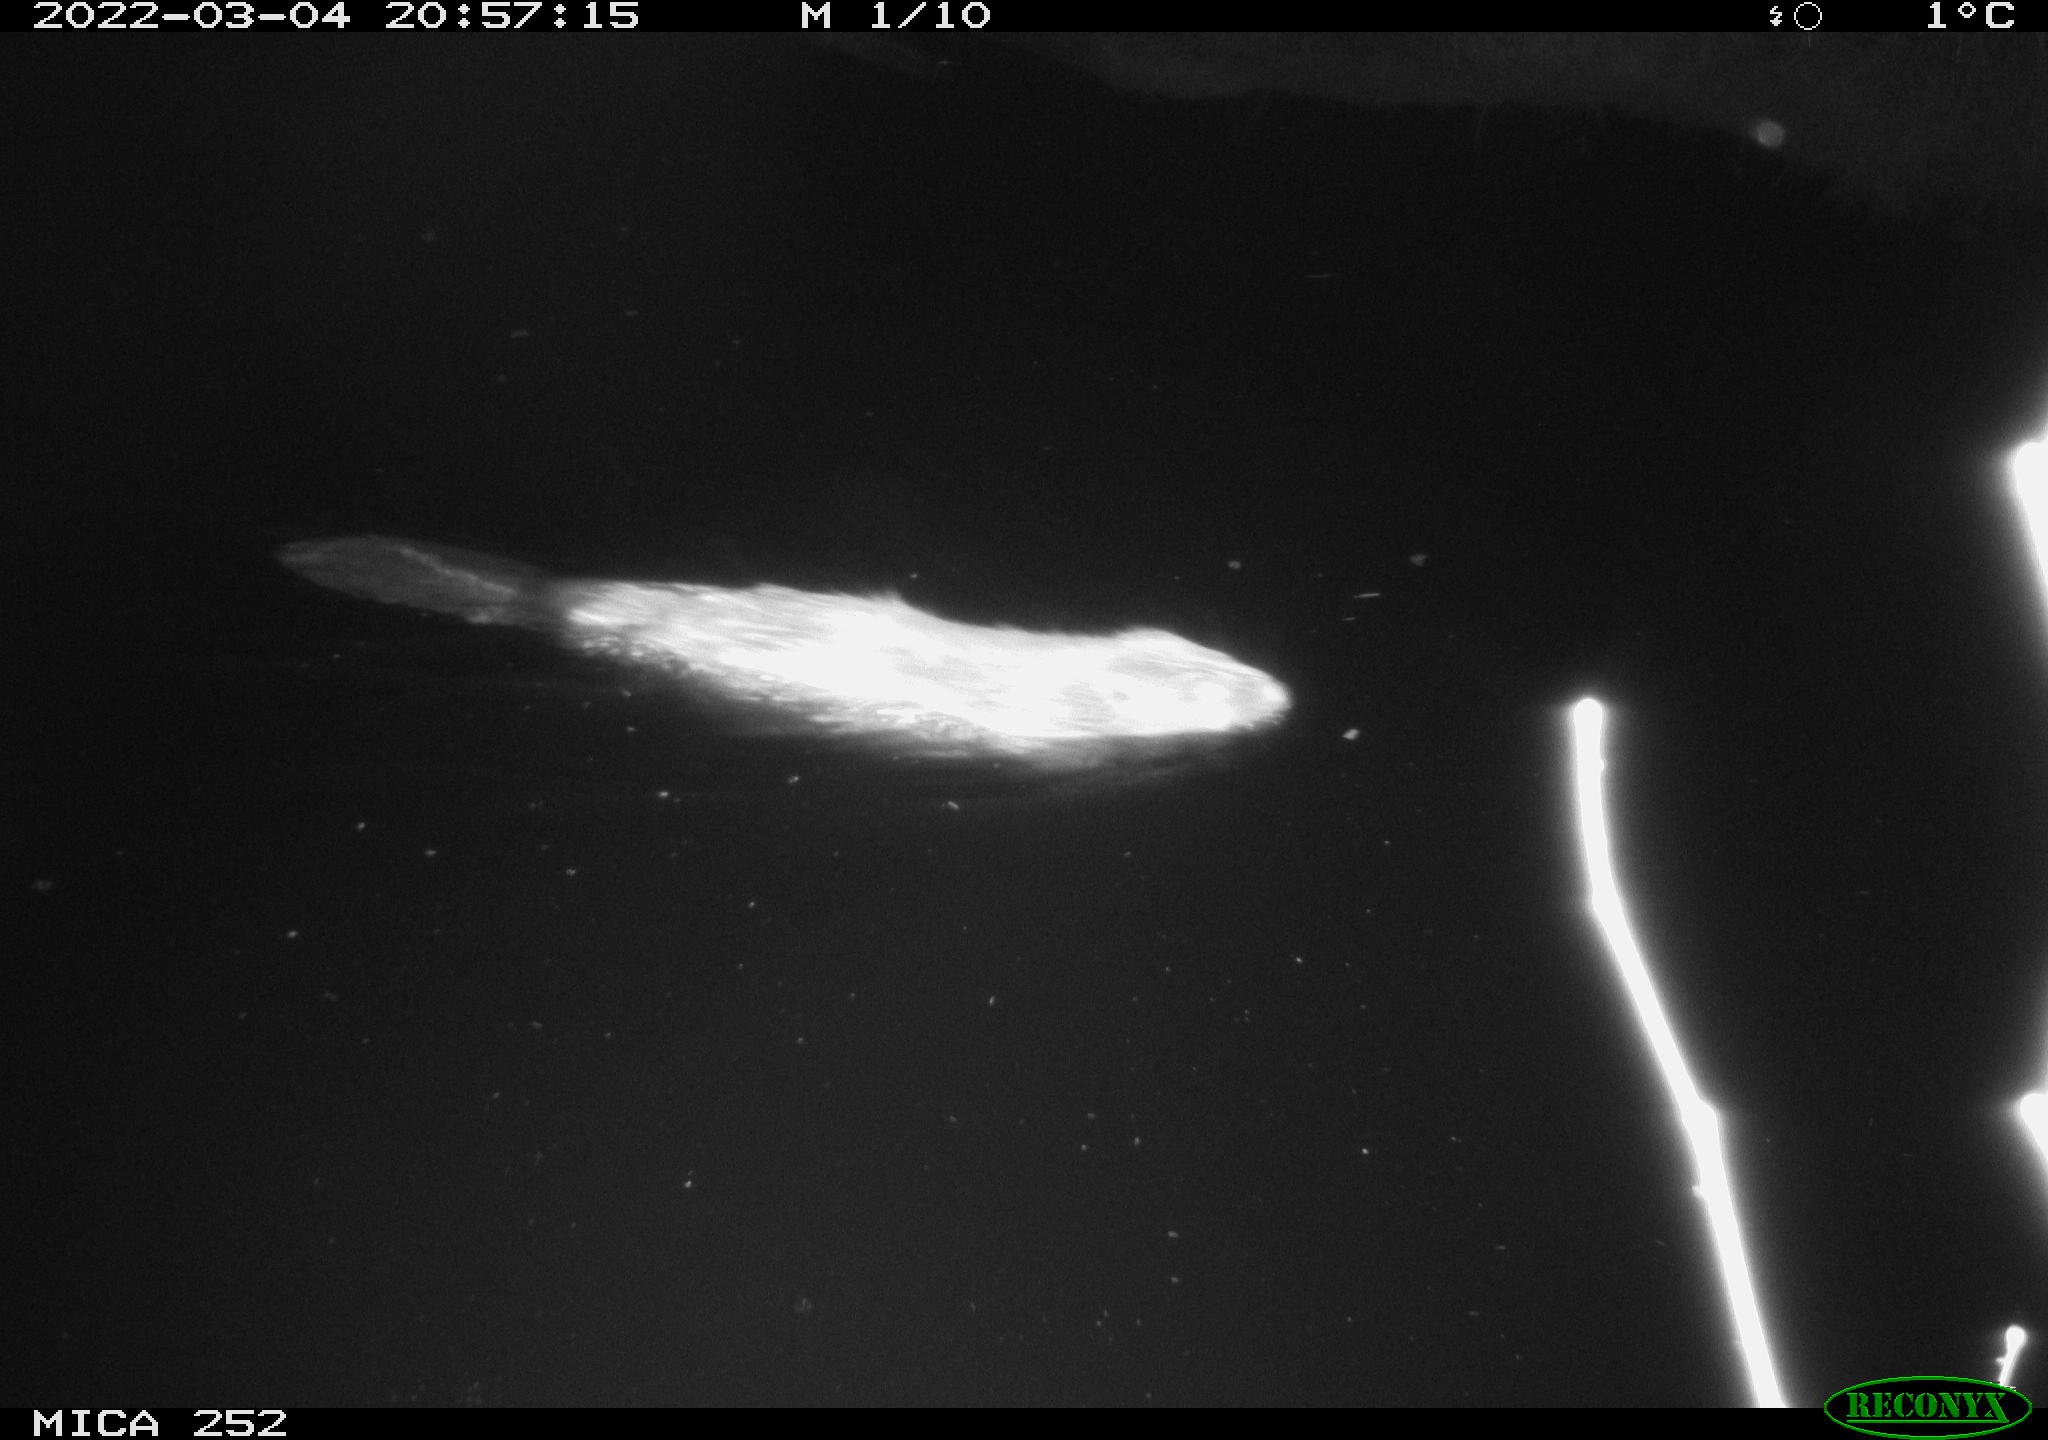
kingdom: Animalia
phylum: Chordata
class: Mammalia
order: Rodentia
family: Castoridae
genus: Castor
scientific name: Castor fiber
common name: Eurasian beaver
